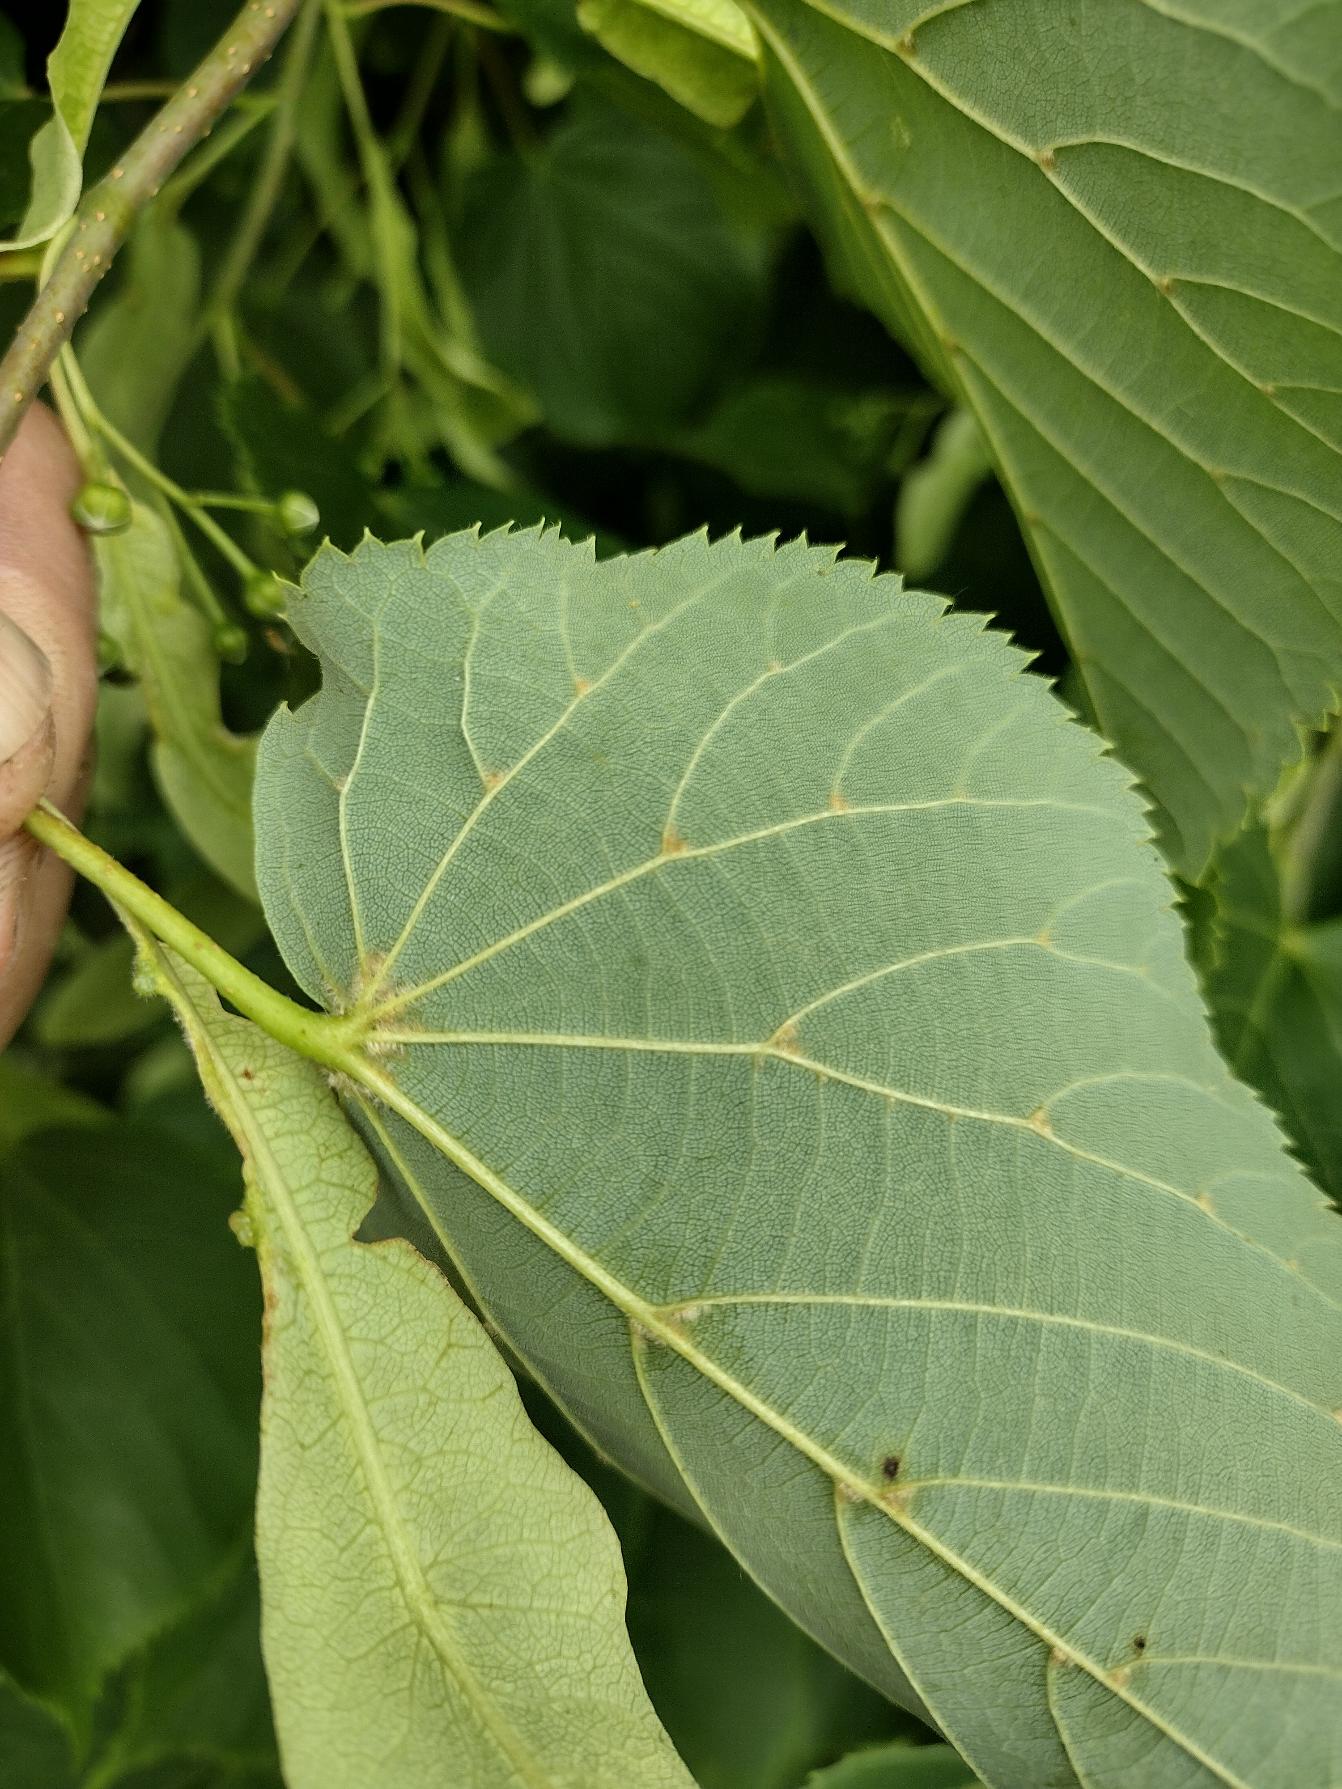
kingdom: Plantae
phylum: Tracheophyta
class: Magnoliopsida
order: Malvales
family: Malvaceae
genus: Tilia
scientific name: Tilia cordata
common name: Småbladet lind
